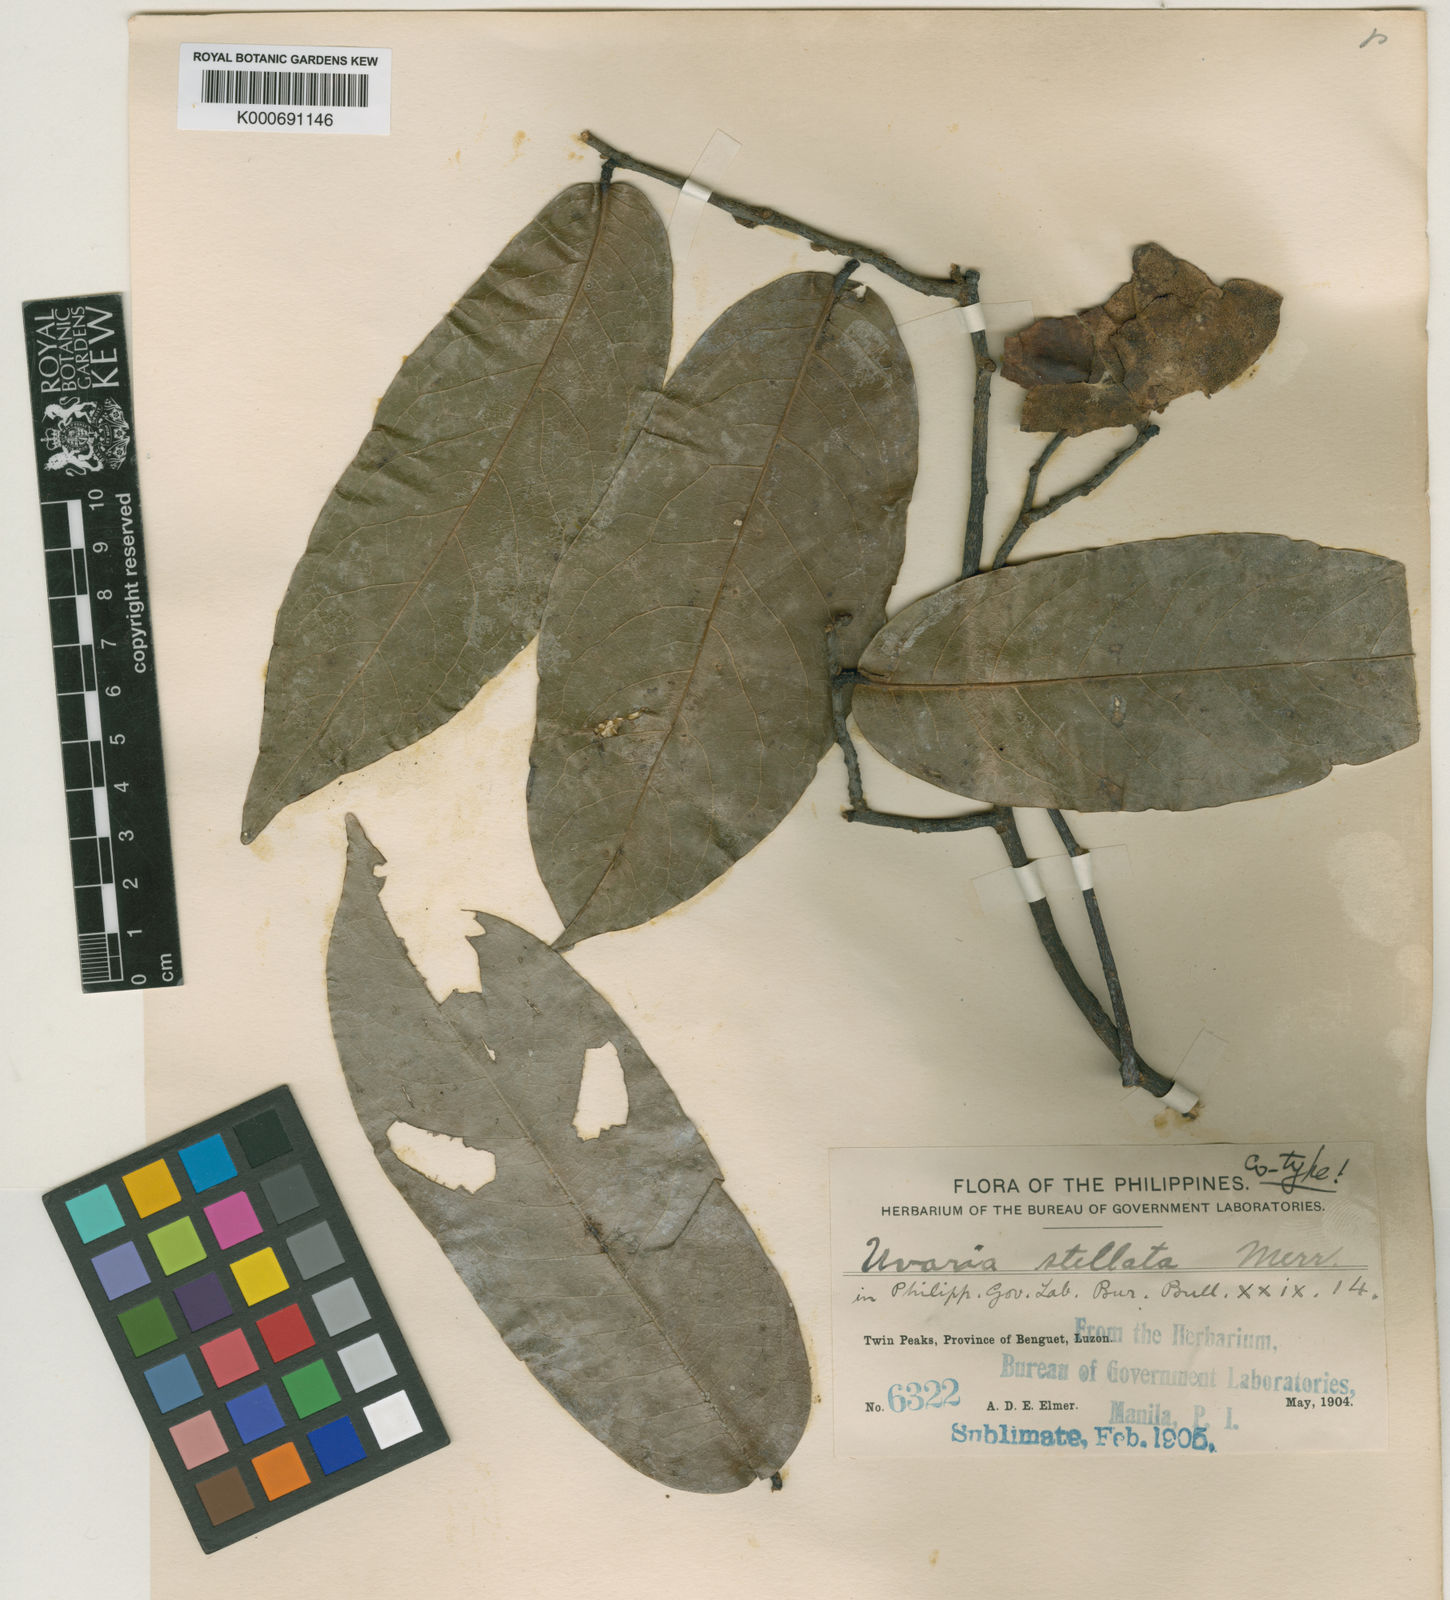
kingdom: Plantae
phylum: Tracheophyta
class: Magnoliopsida
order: Magnoliales
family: Annonaceae
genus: Uvaria
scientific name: Uvaria stellata
